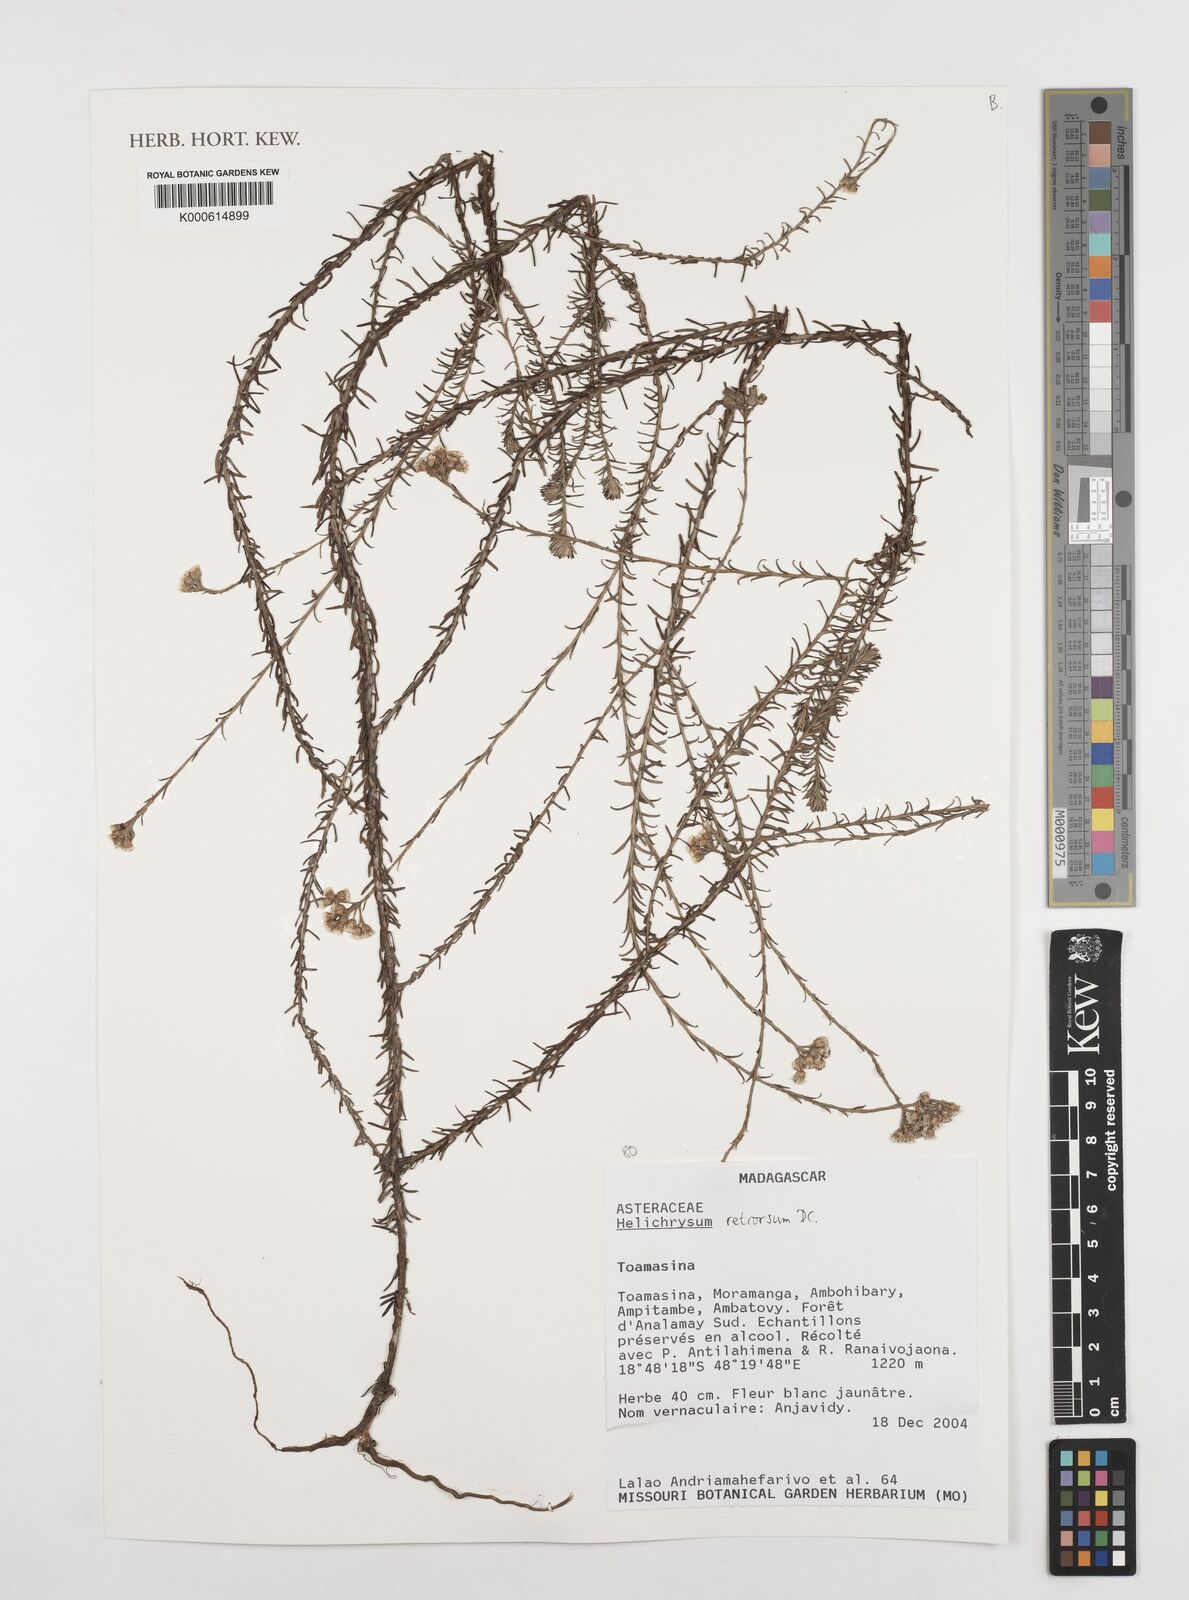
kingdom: Plantae
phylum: Tracheophyta
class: Magnoliopsida
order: Asterales
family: Asteraceae
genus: Helichrysum
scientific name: Helichrysum retrorsum
